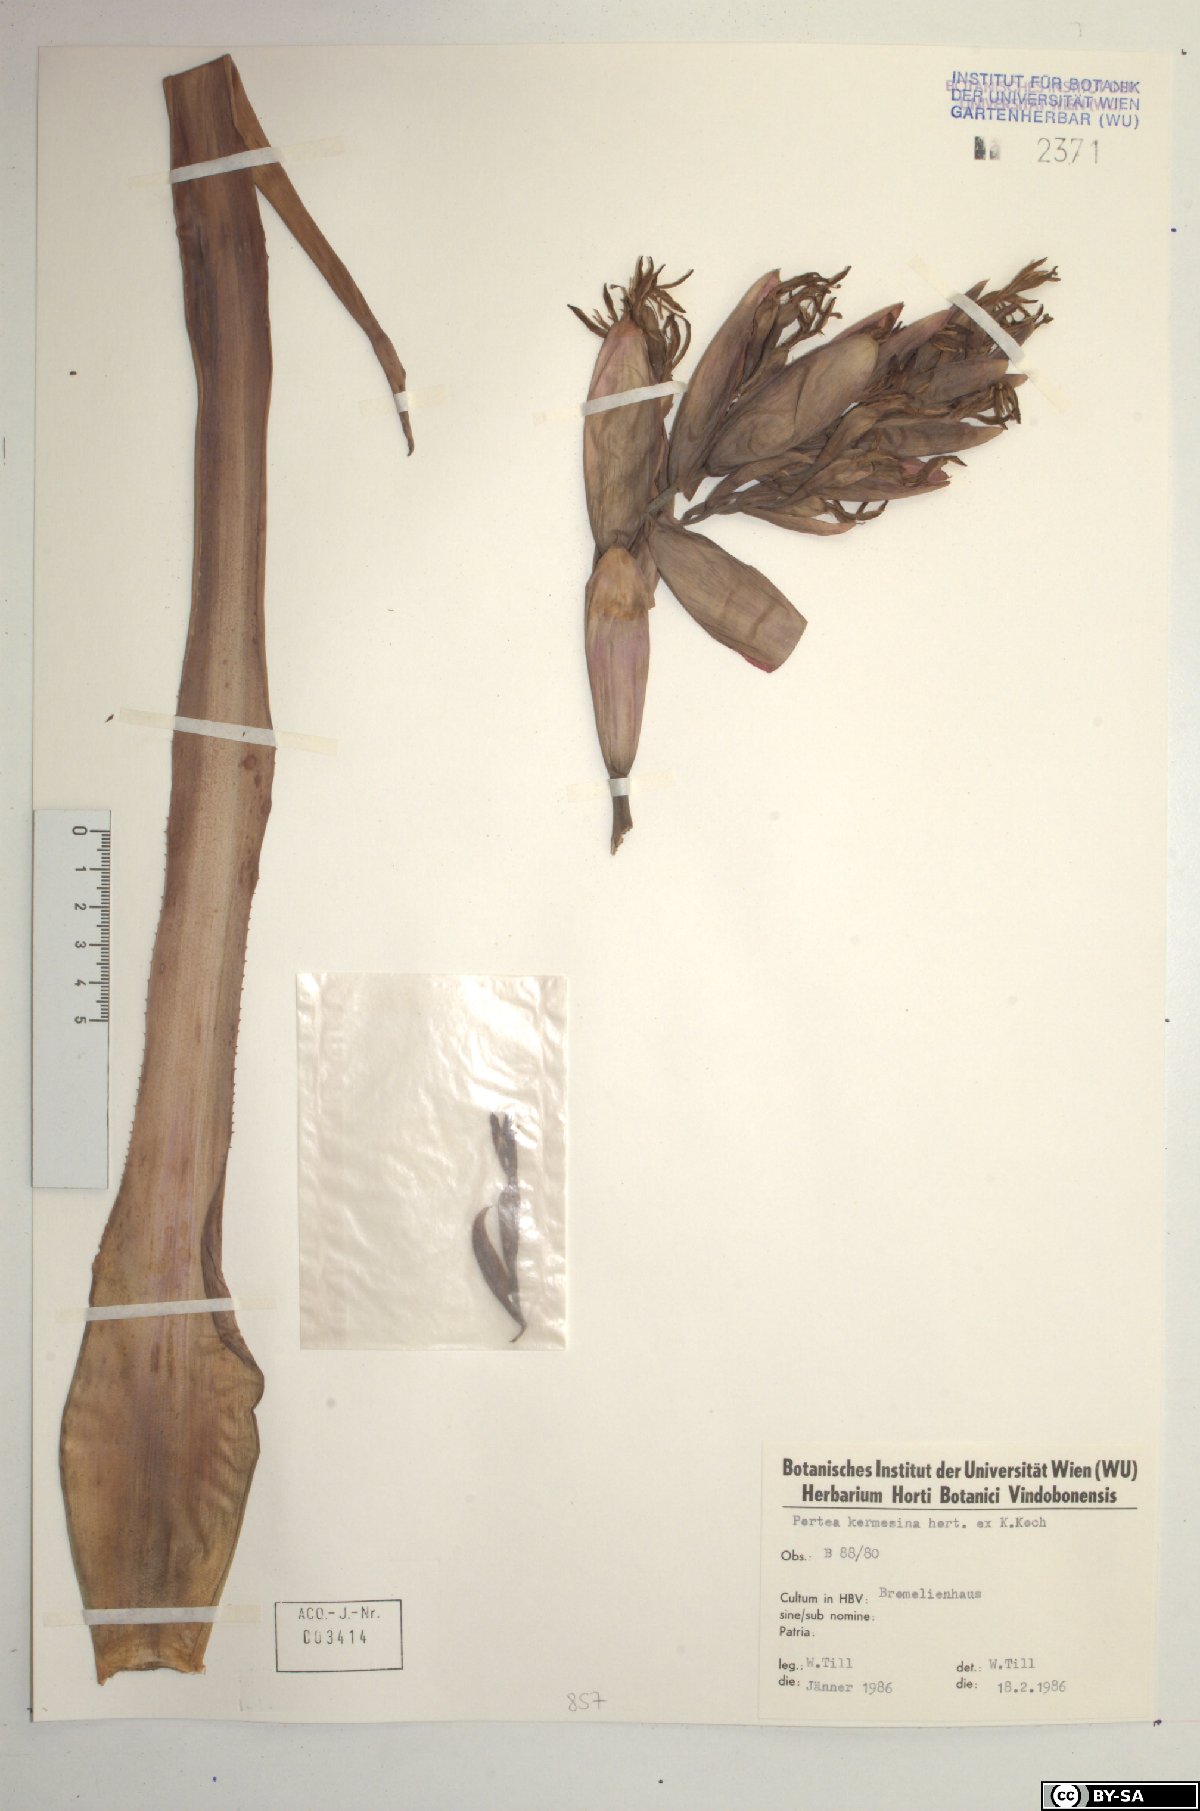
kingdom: Plantae
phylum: Tracheophyta
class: Liliopsida
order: Poales
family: Bromeliaceae
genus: Portea
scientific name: Portea kermesina
